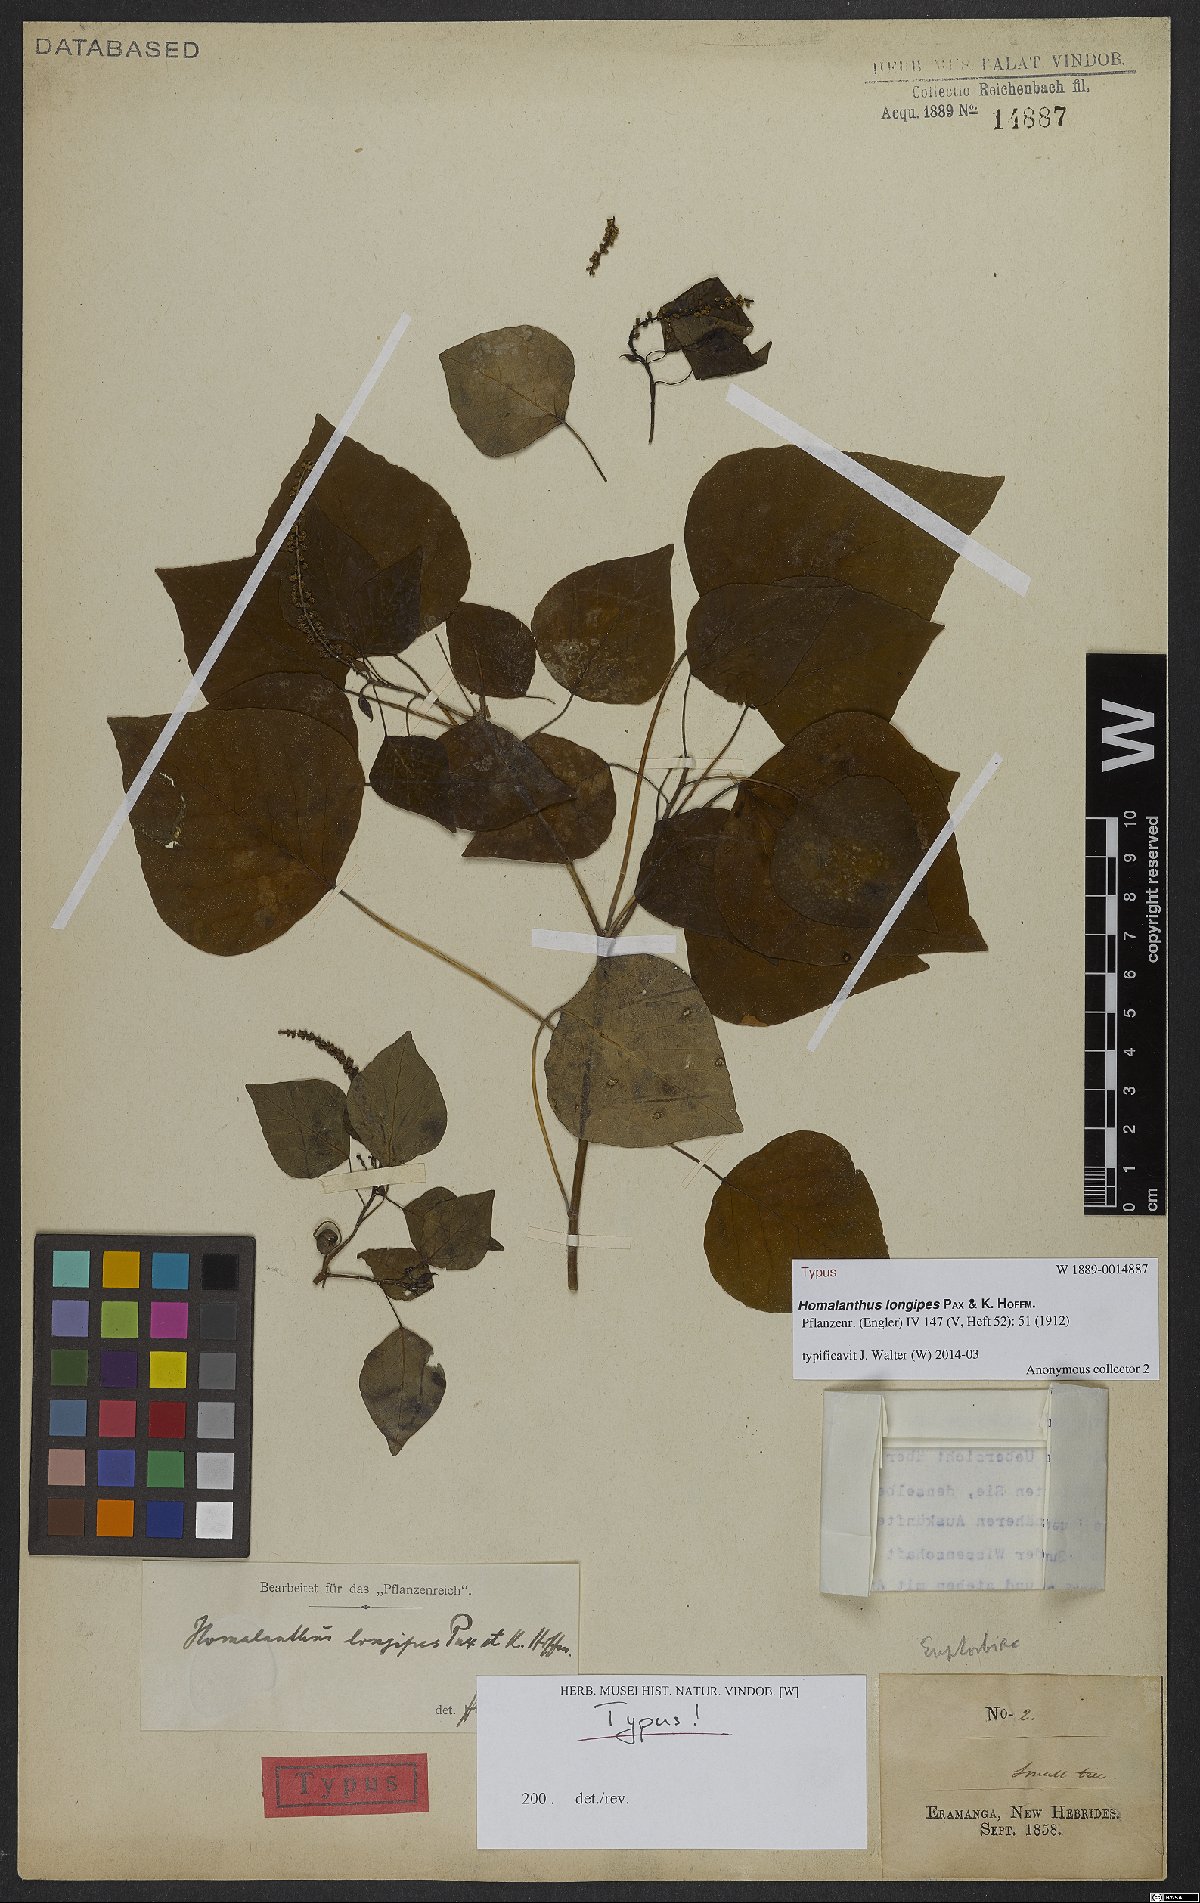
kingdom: Plantae
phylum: Tracheophyta
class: Magnoliopsida
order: Malpighiales
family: Euphorbiaceae
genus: Homalanthus
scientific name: Homalanthus longipes
